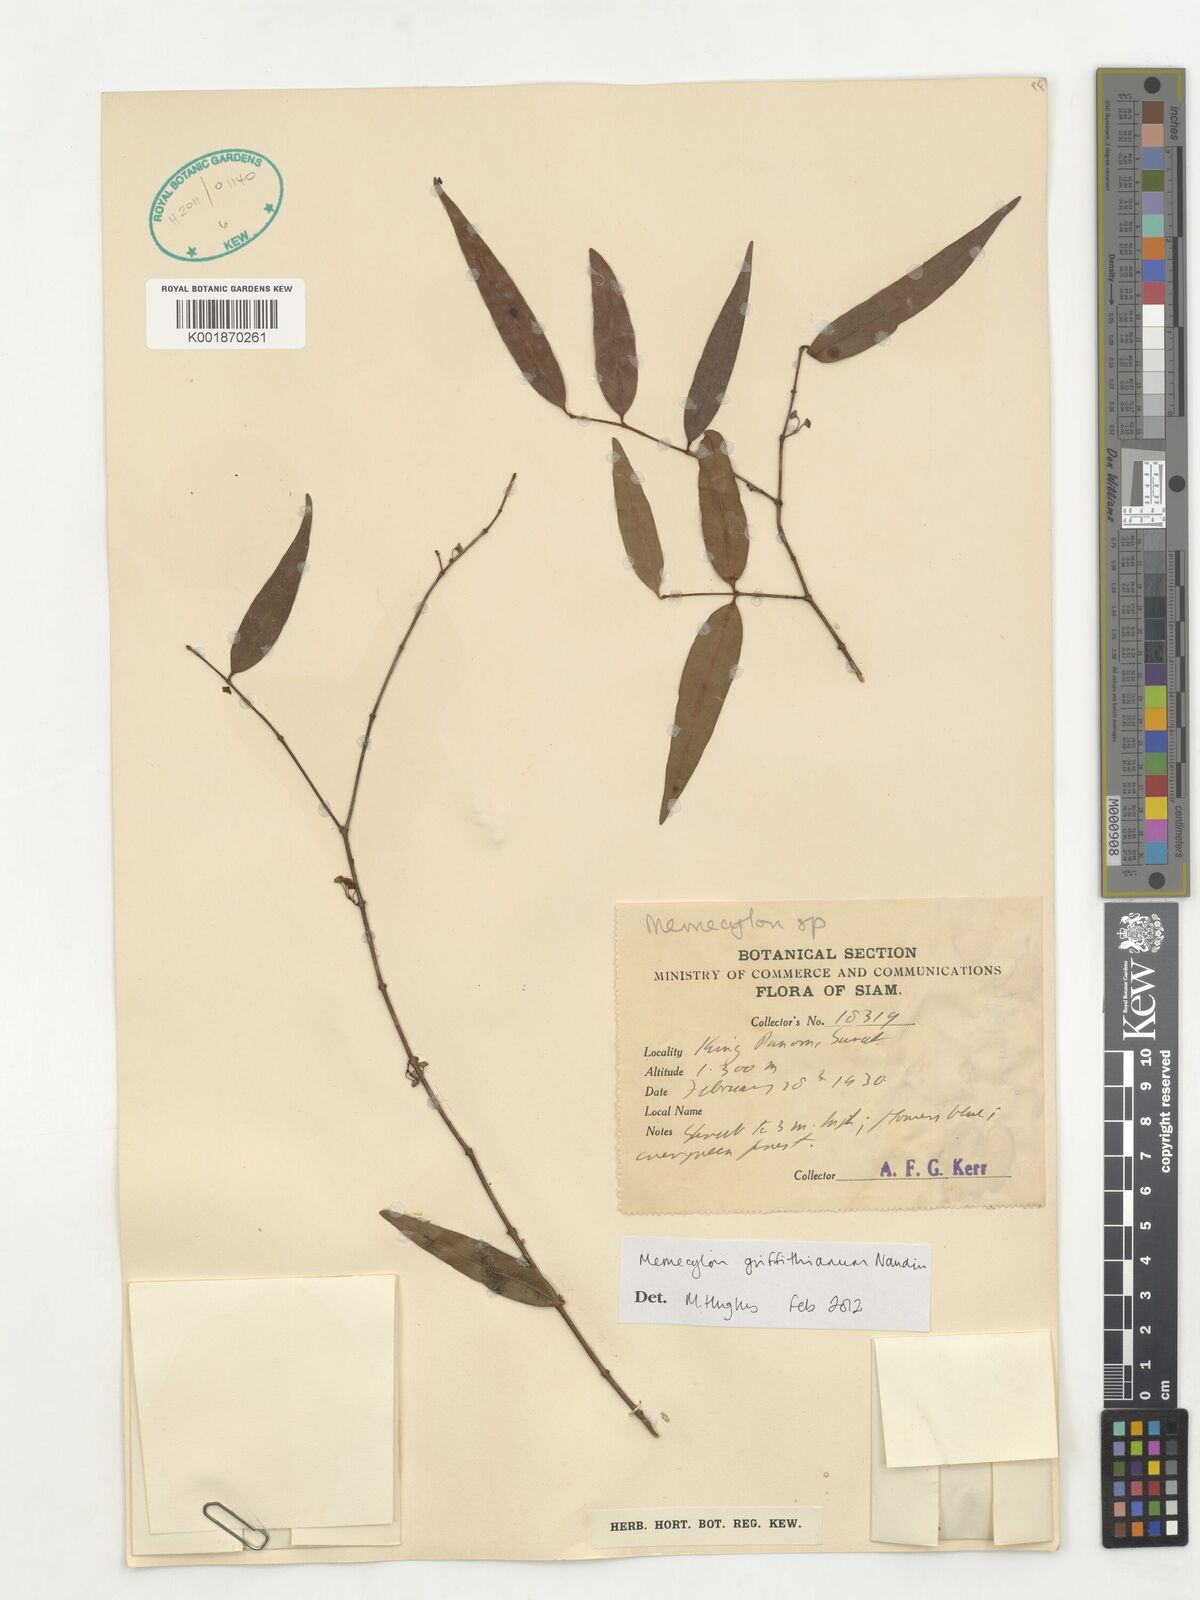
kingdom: Plantae
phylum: Tracheophyta
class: Magnoliopsida
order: Myrtales
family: Melastomataceae
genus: Memecylon
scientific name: Memecylon griffithianum
